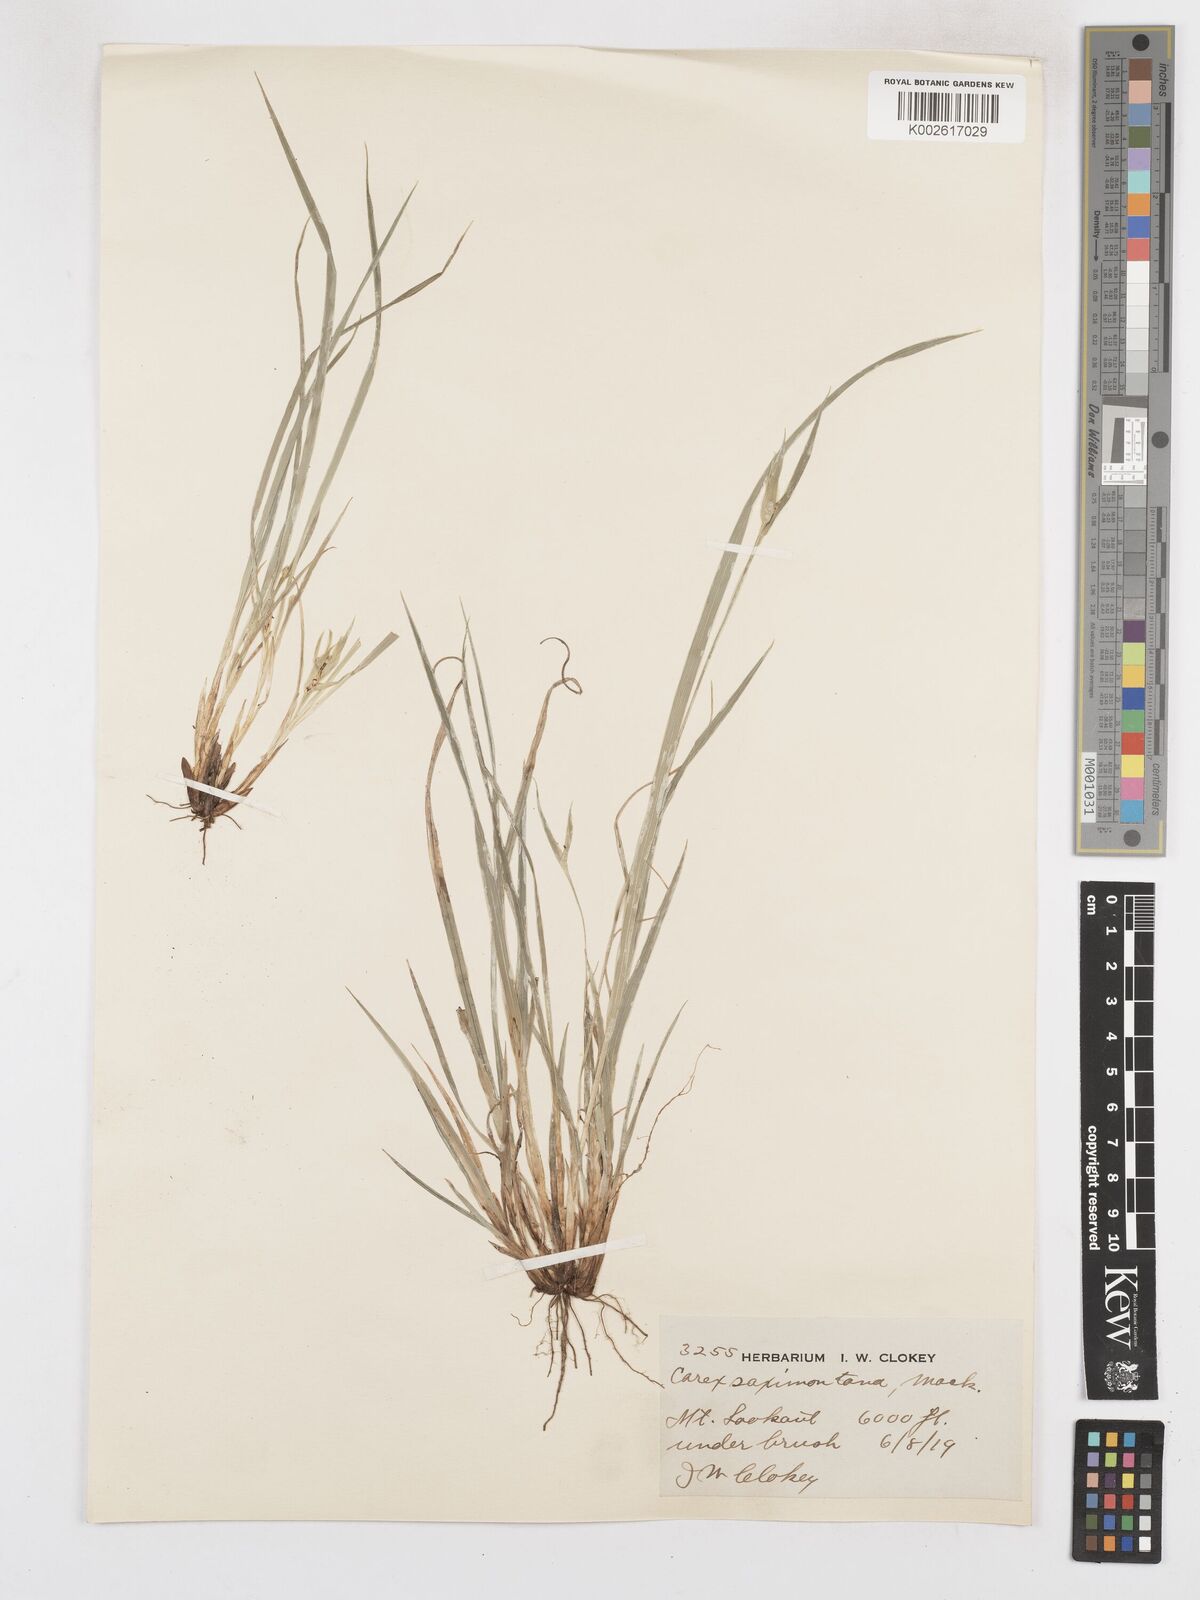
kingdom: Plantae
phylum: Tracheophyta
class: Liliopsida
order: Poales
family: Cyperaceae
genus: Carex
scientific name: Carex saximontana
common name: Rocky mountain sedge
